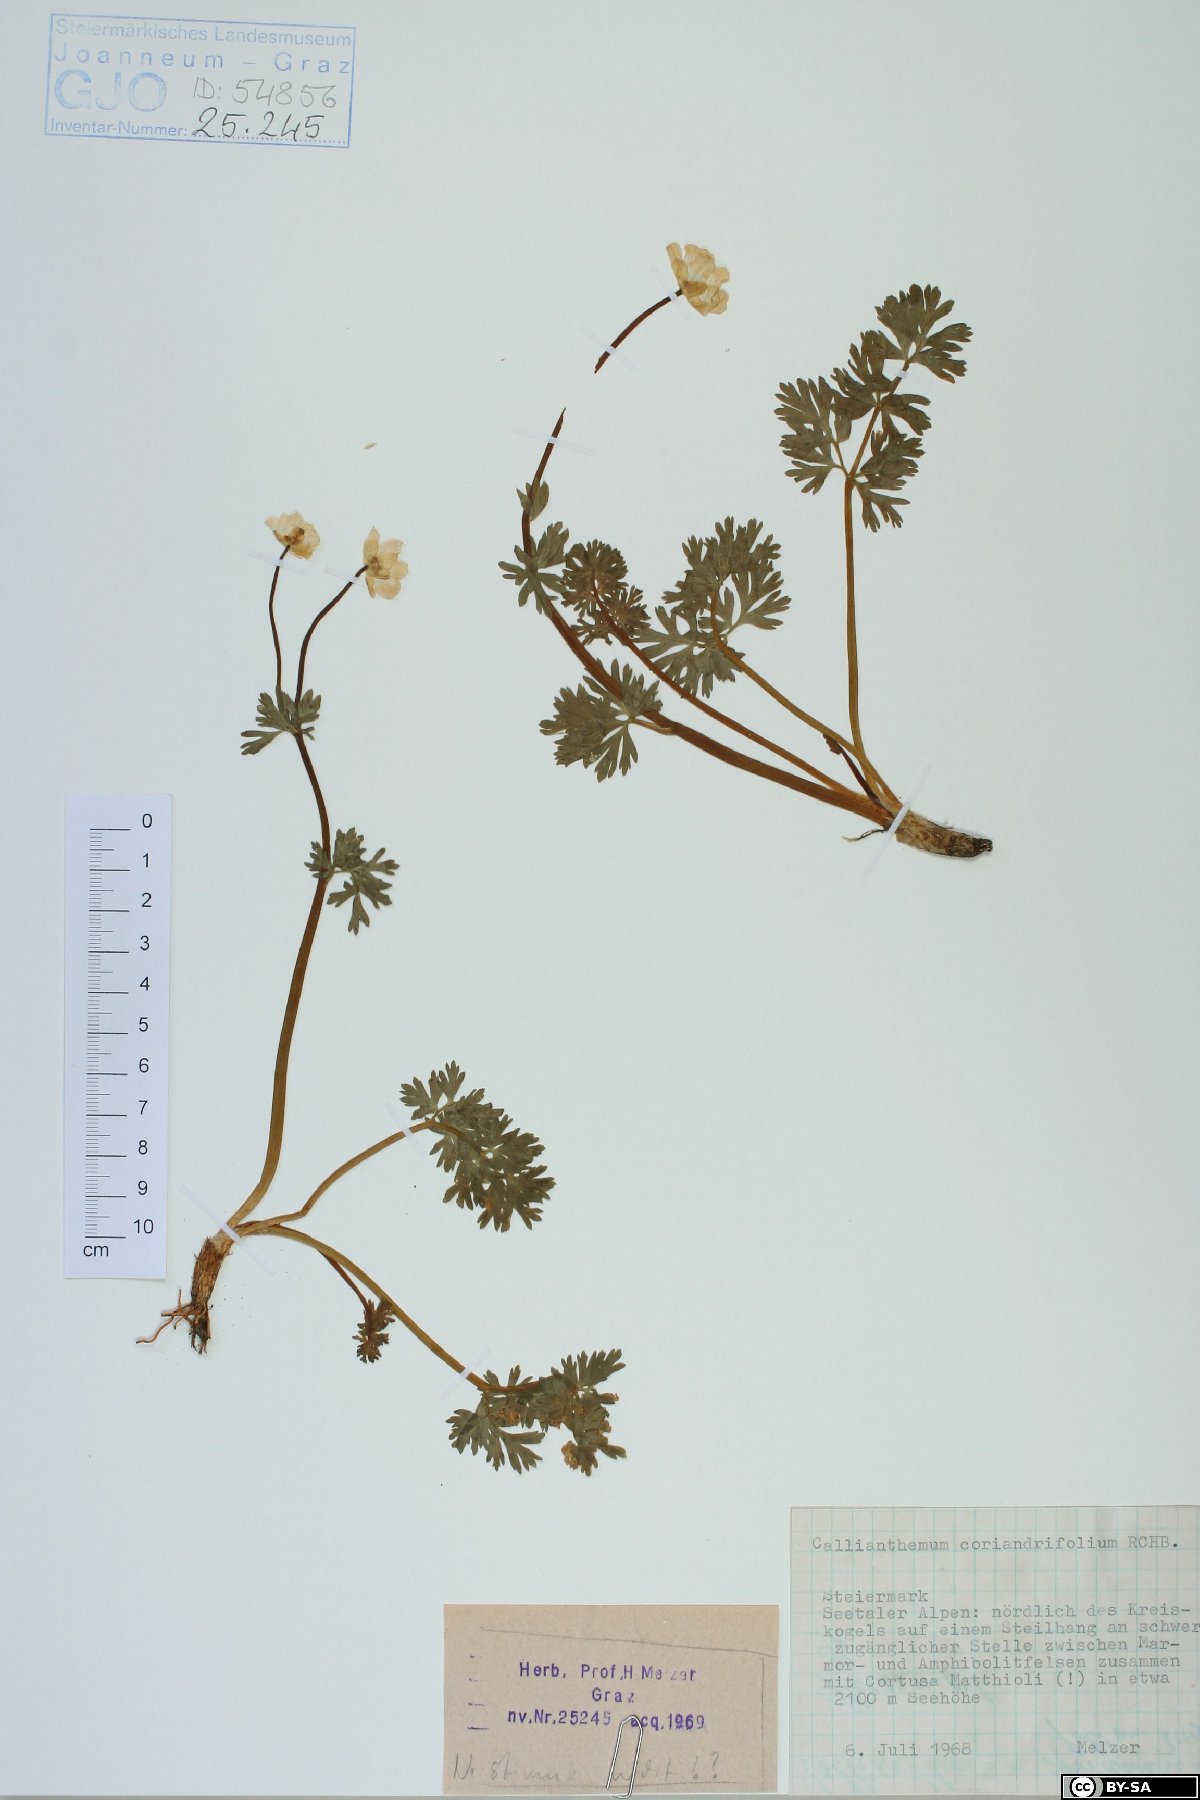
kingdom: Plantae
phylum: Tracheophyta
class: Magnoliopsida
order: Ranunculales
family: Ranunculaceae
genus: Callianthemum
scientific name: Callianthemum coriandrifolium
